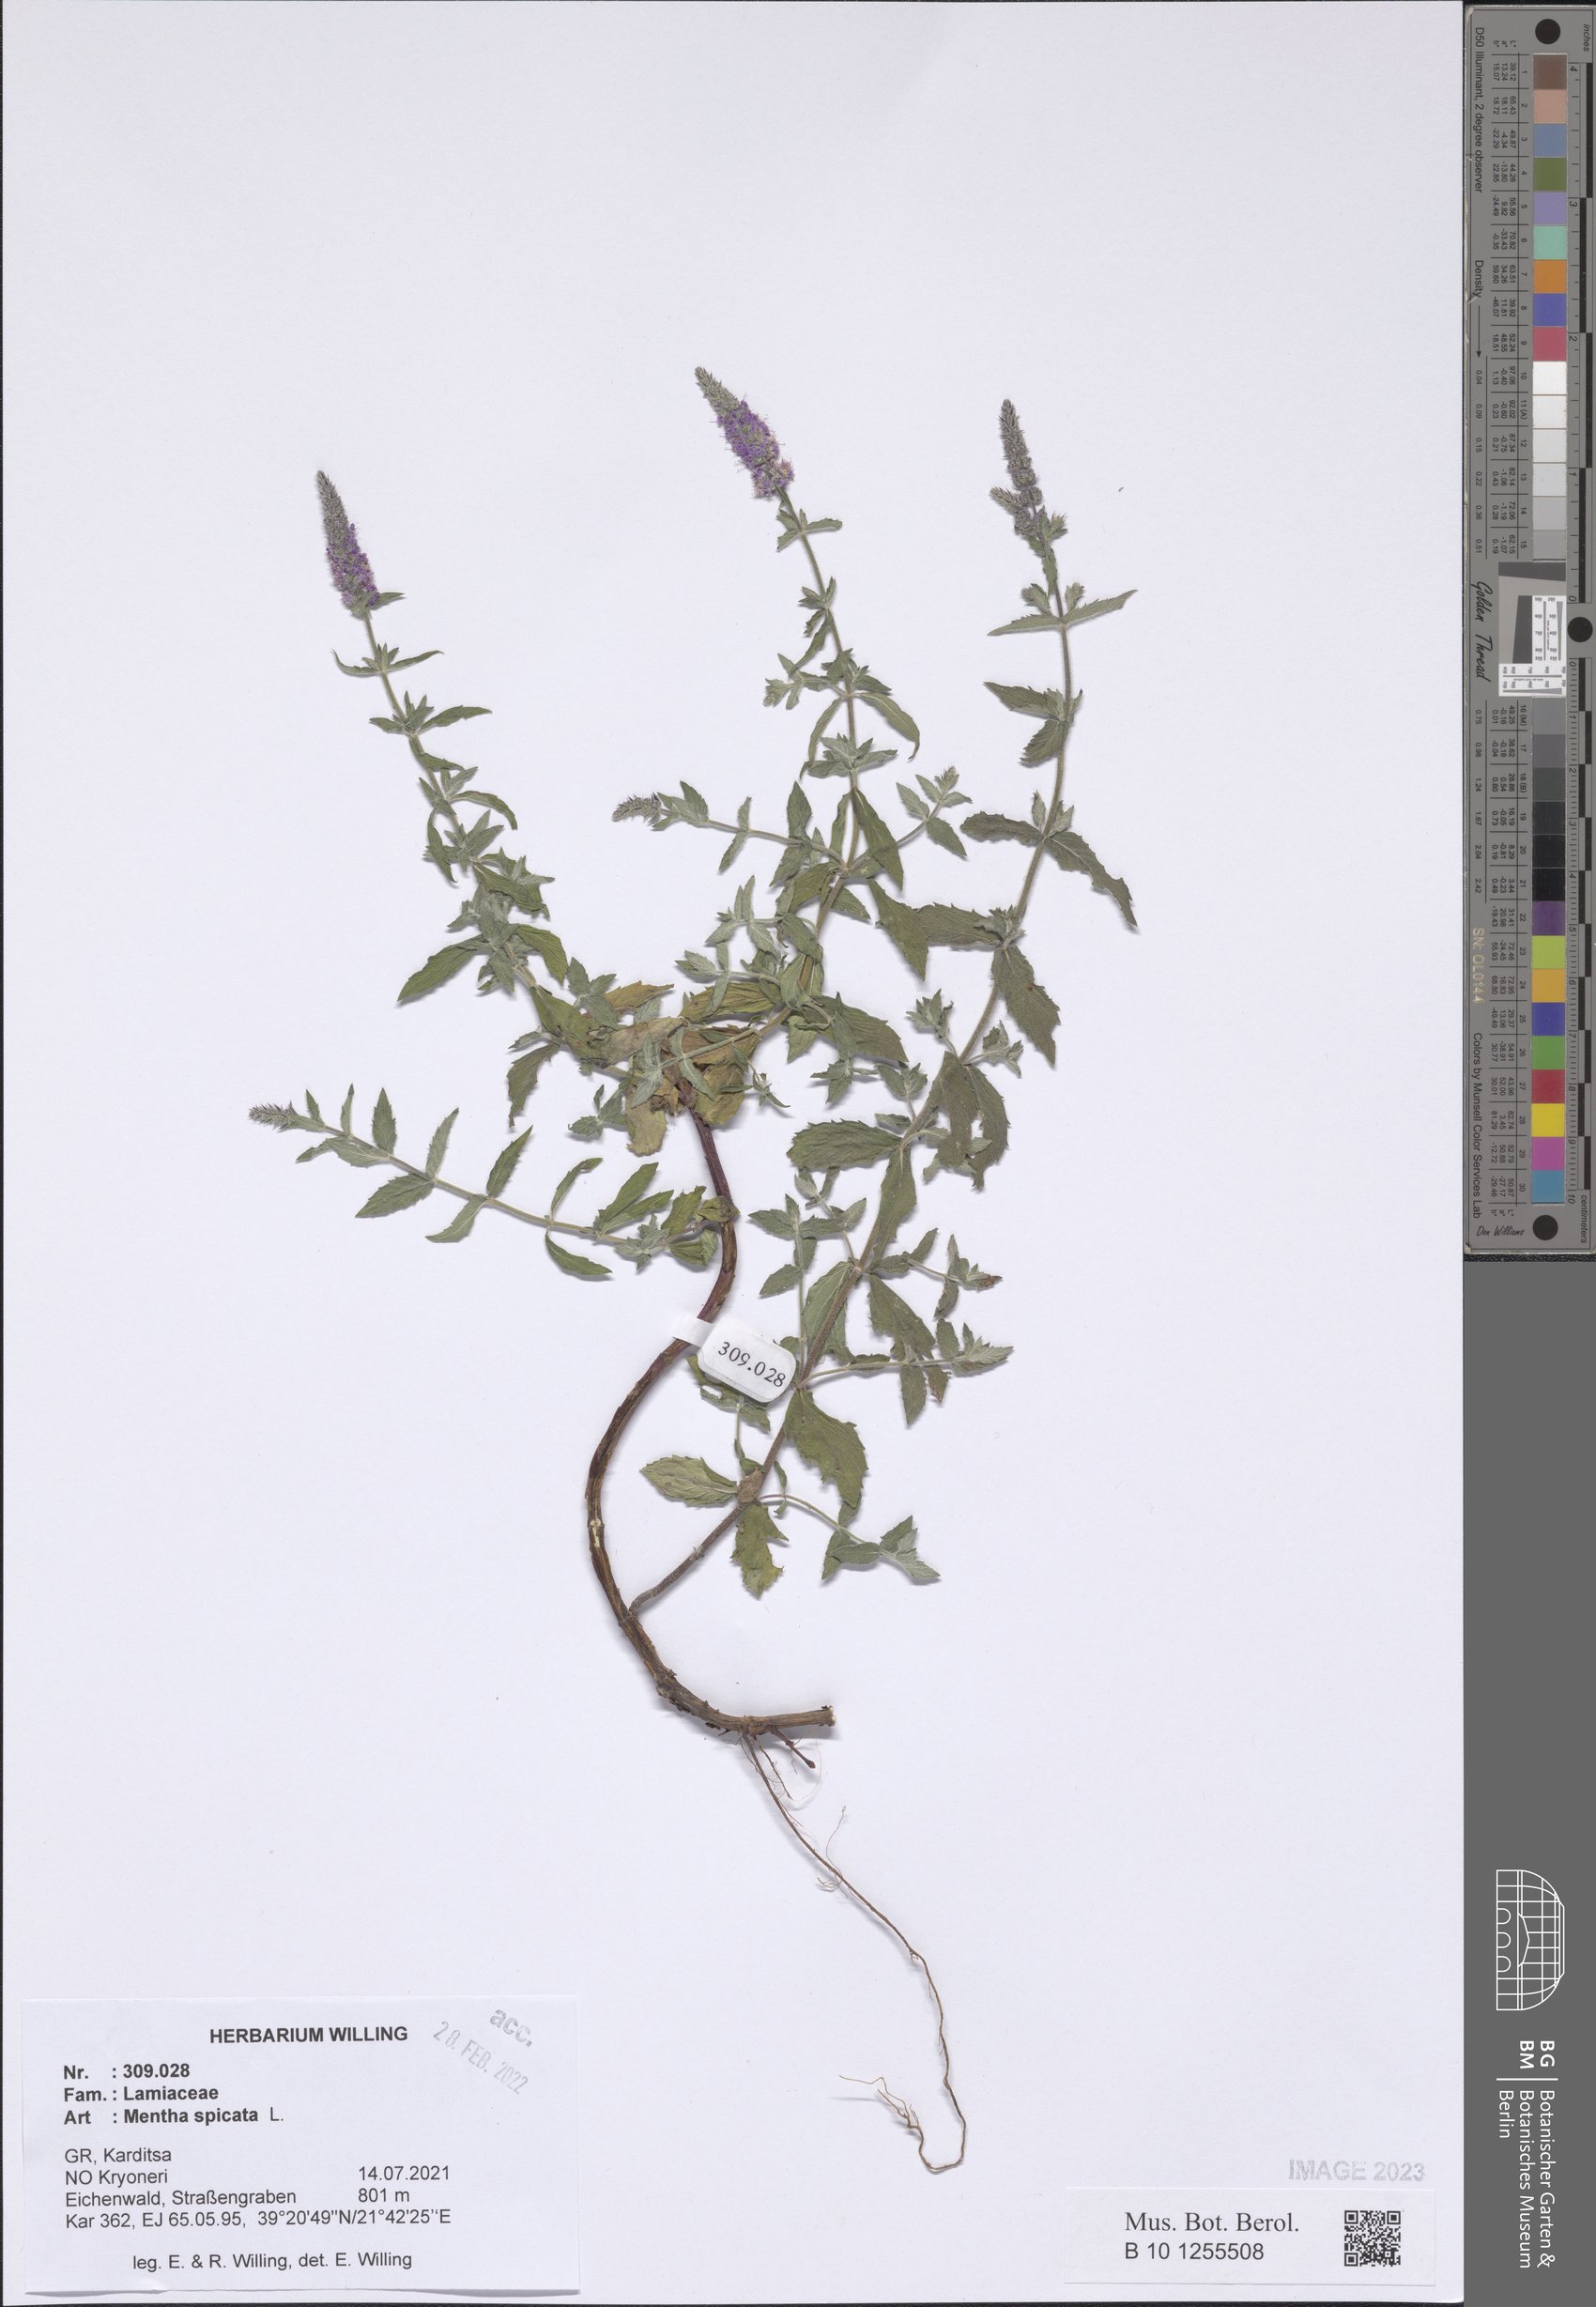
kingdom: Plantae
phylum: Tracheophyta
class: Magnoliopsida
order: Lamiales
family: Lamiaceae
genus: Mentha
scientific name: Mentha spicata
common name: Spearmint
